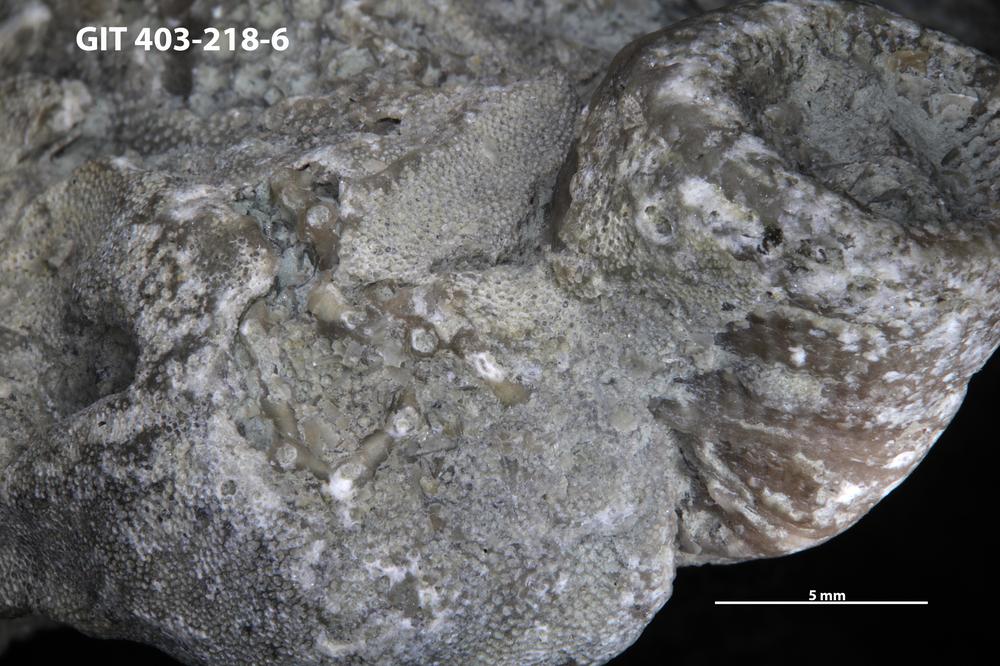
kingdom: Animalia
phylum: Cnidaria
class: Anthozoa
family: Auloporidae
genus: Aulopora
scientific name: Aulopora
